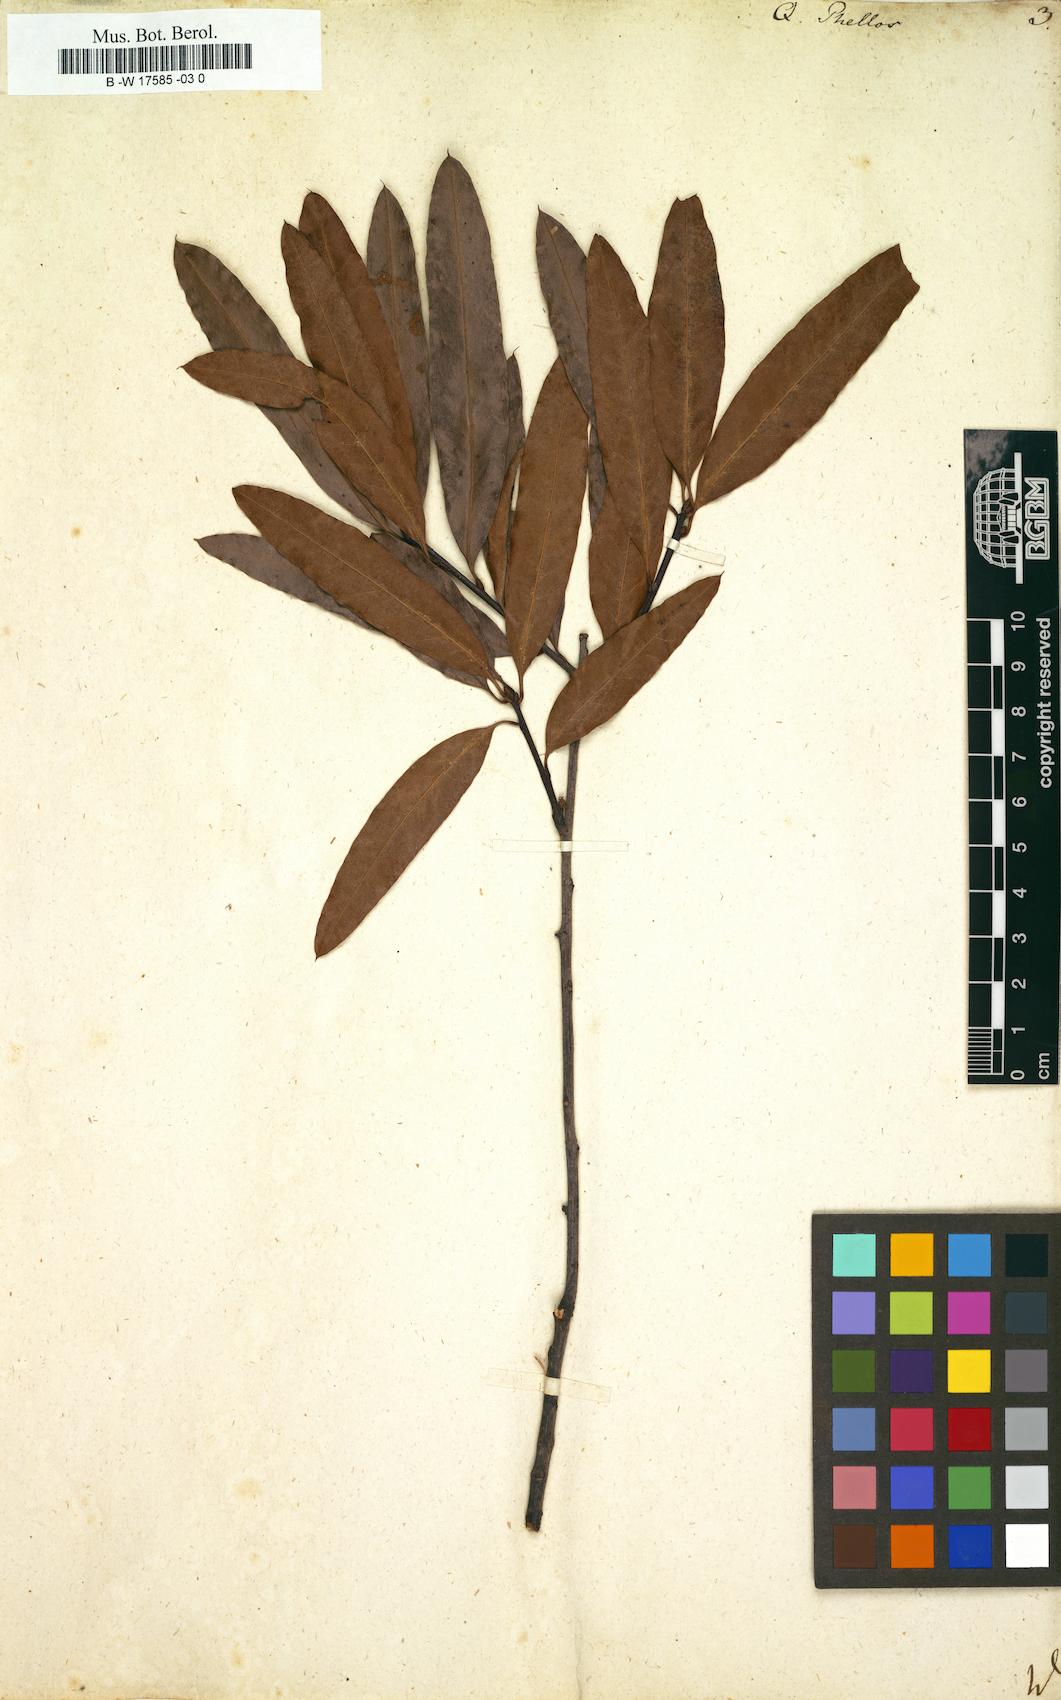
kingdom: Plantae
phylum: Tracheophyta
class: Magnoliopsida
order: Fagales
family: Fagaceae
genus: Quercus
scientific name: Quercus phellos
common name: Willow oak
